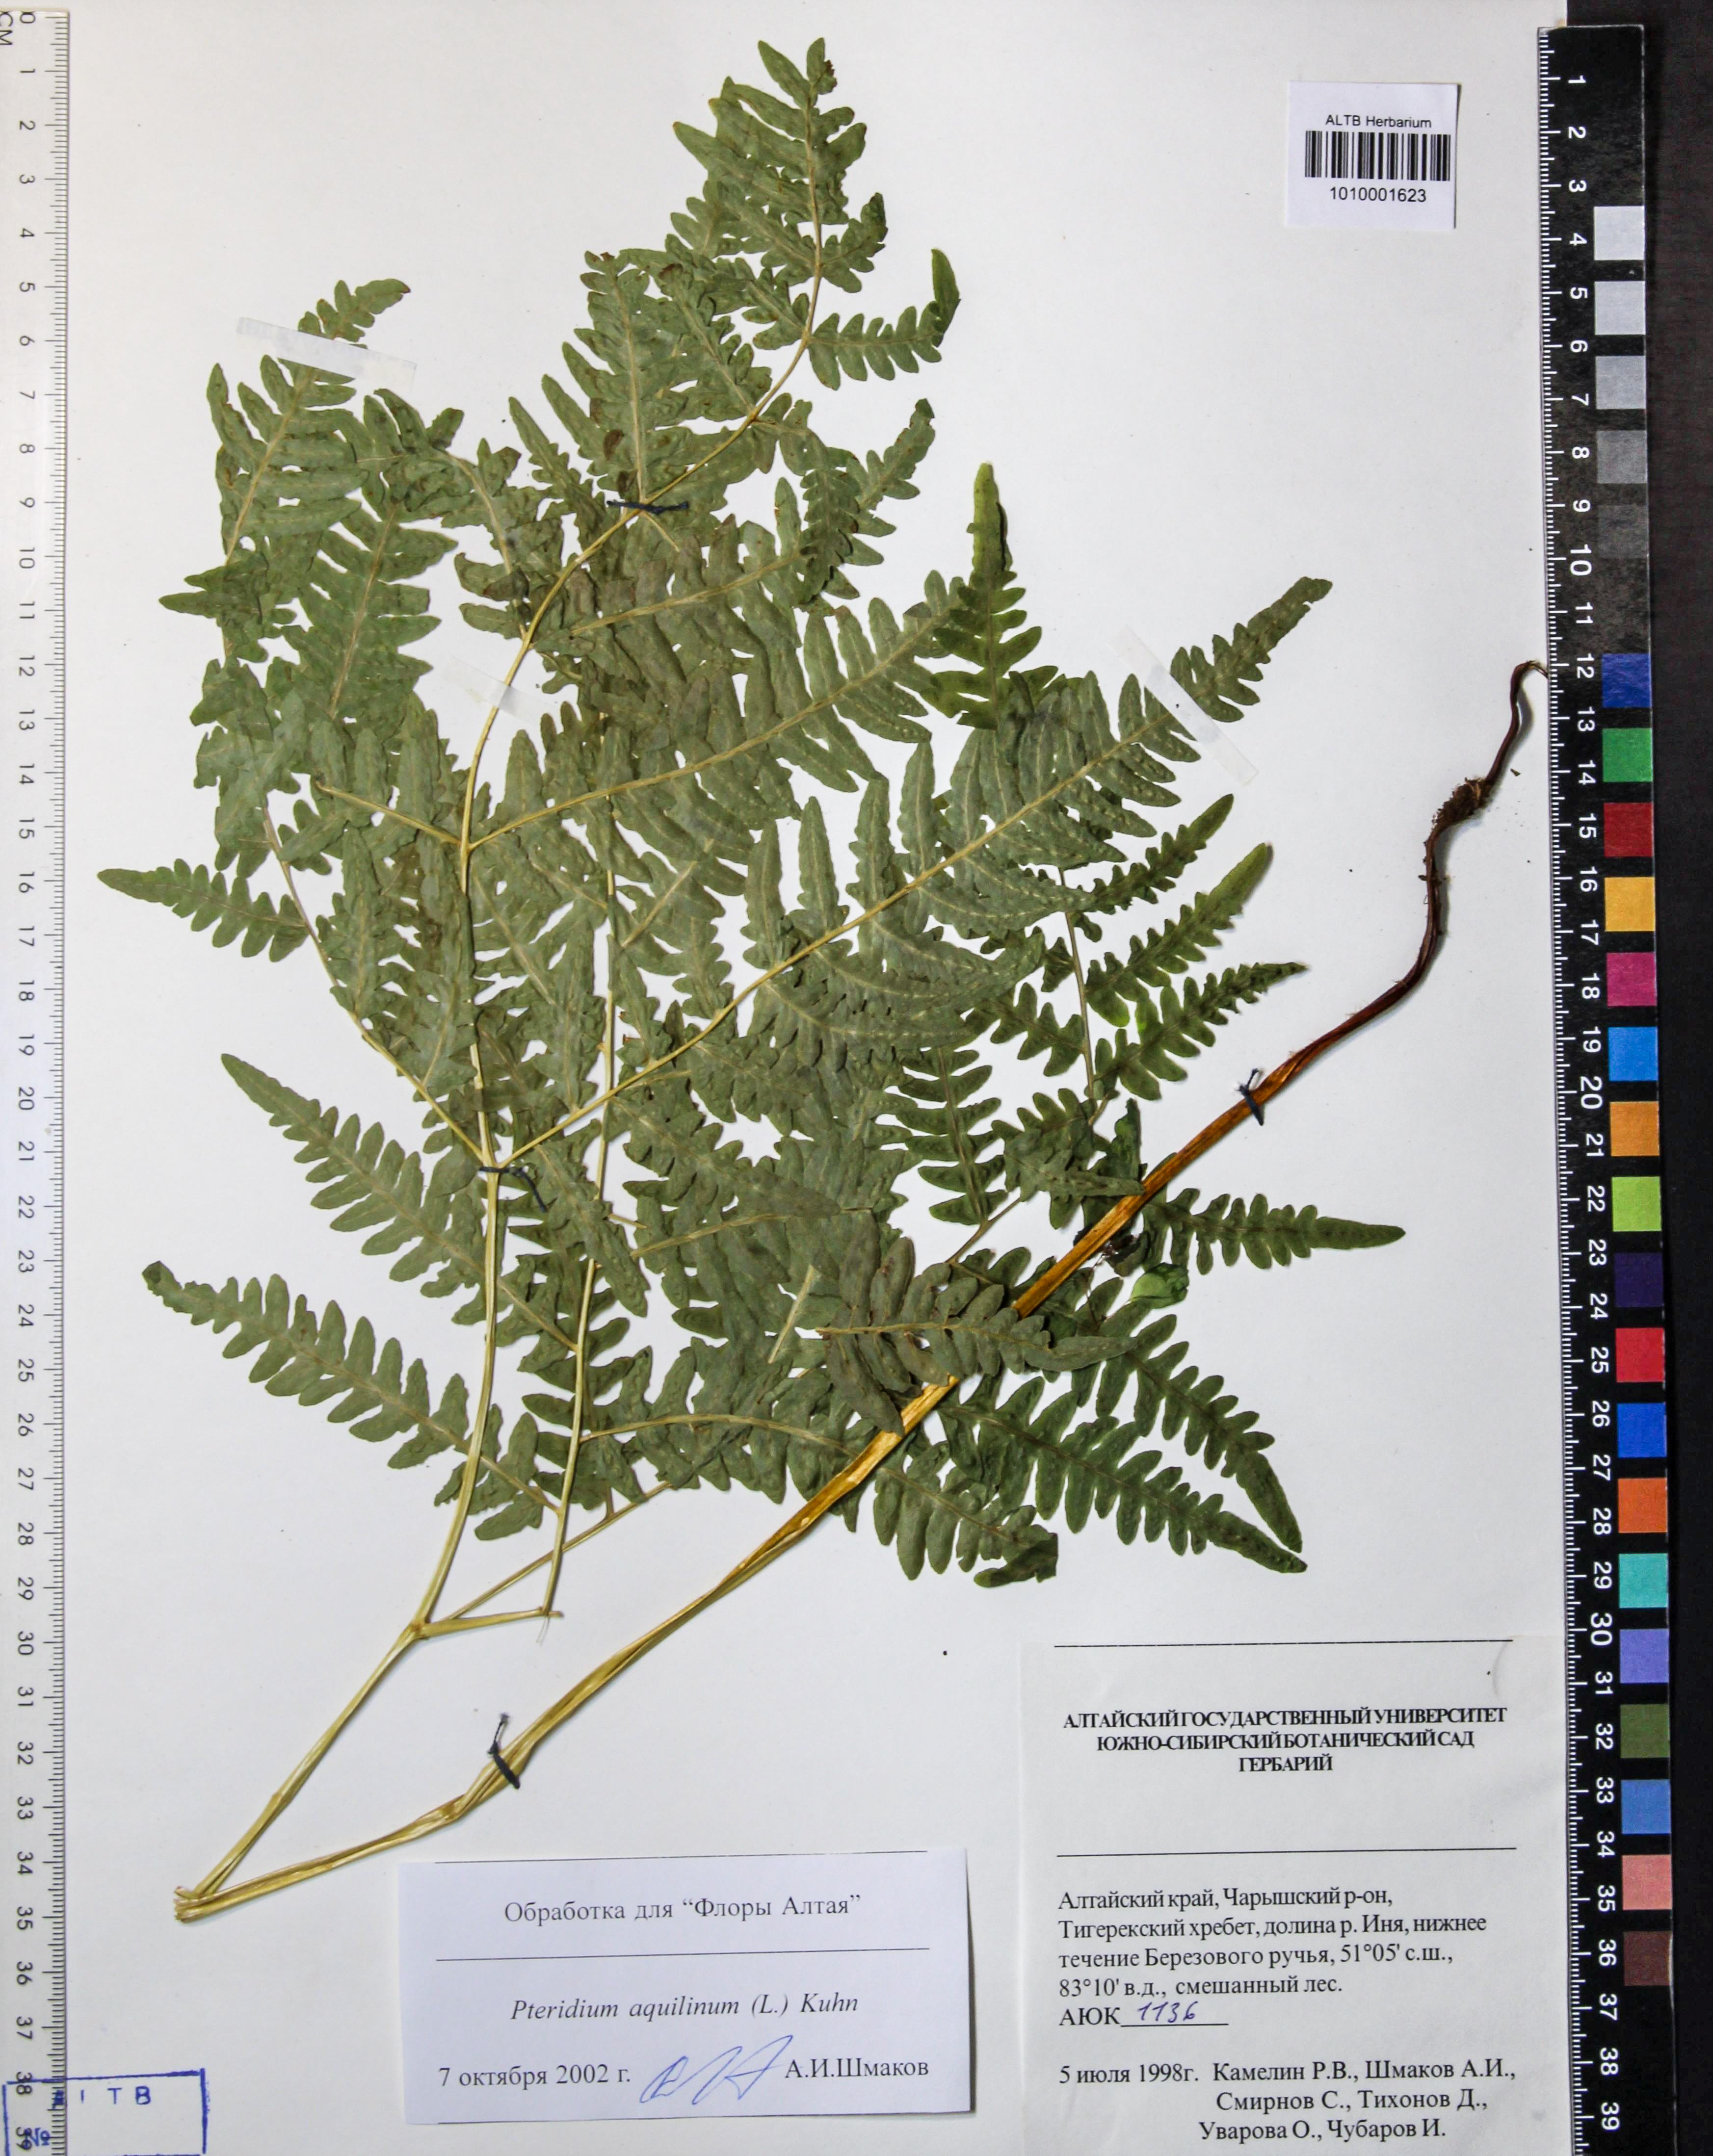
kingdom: Plantae
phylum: Tracheophyta
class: Polypodiopsida
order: Polypodiales
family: Dennstaedtiaceae
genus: Pteridium
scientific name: Pteridium aquilinum
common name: Bracken
